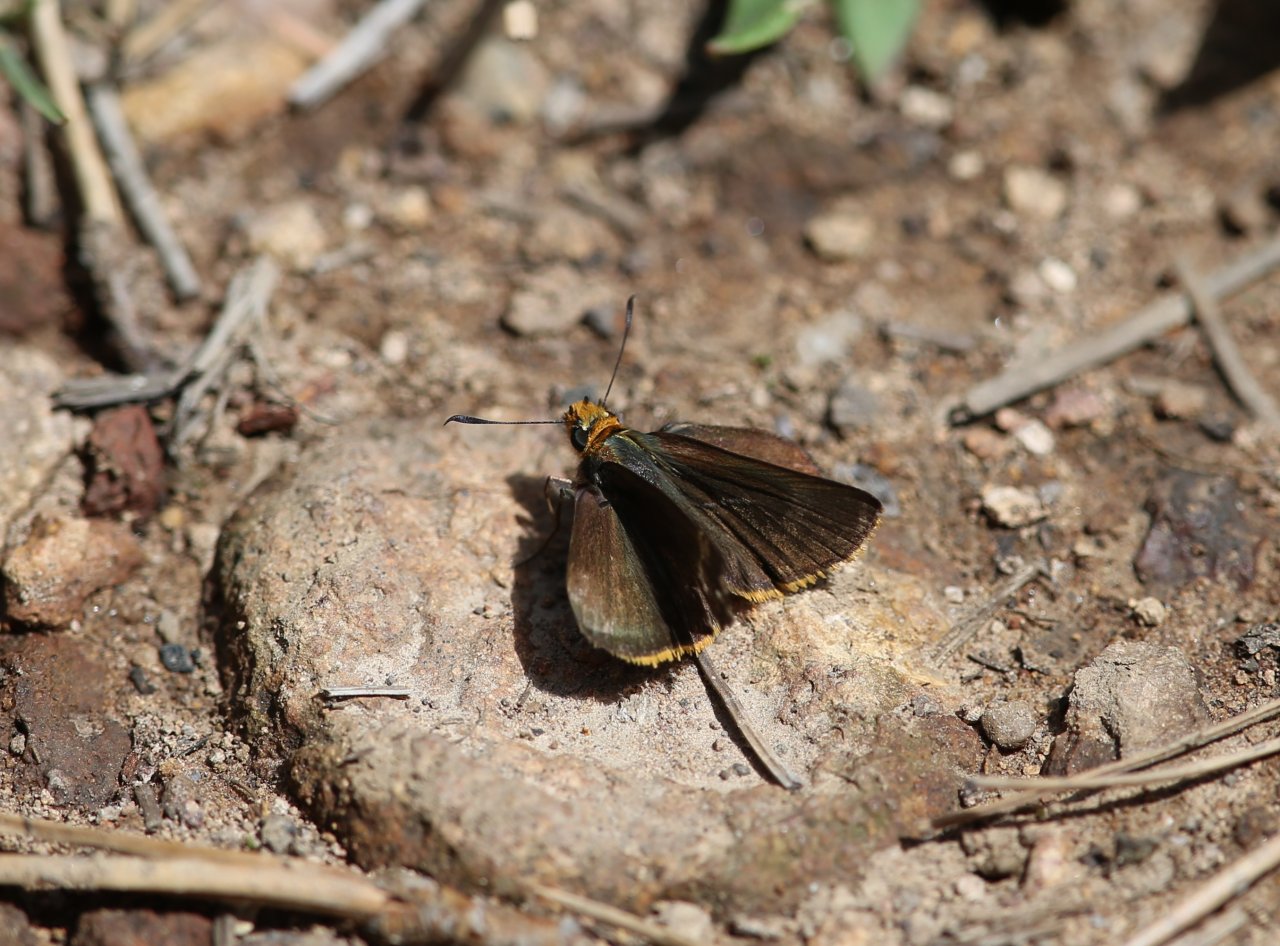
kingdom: Animalia
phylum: Arthropoda
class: Insecta
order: Lepidoptera
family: Hesperiidae
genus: Mastor
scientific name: Mastor fimbriata
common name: Orange-edged Roadside-Skipper
